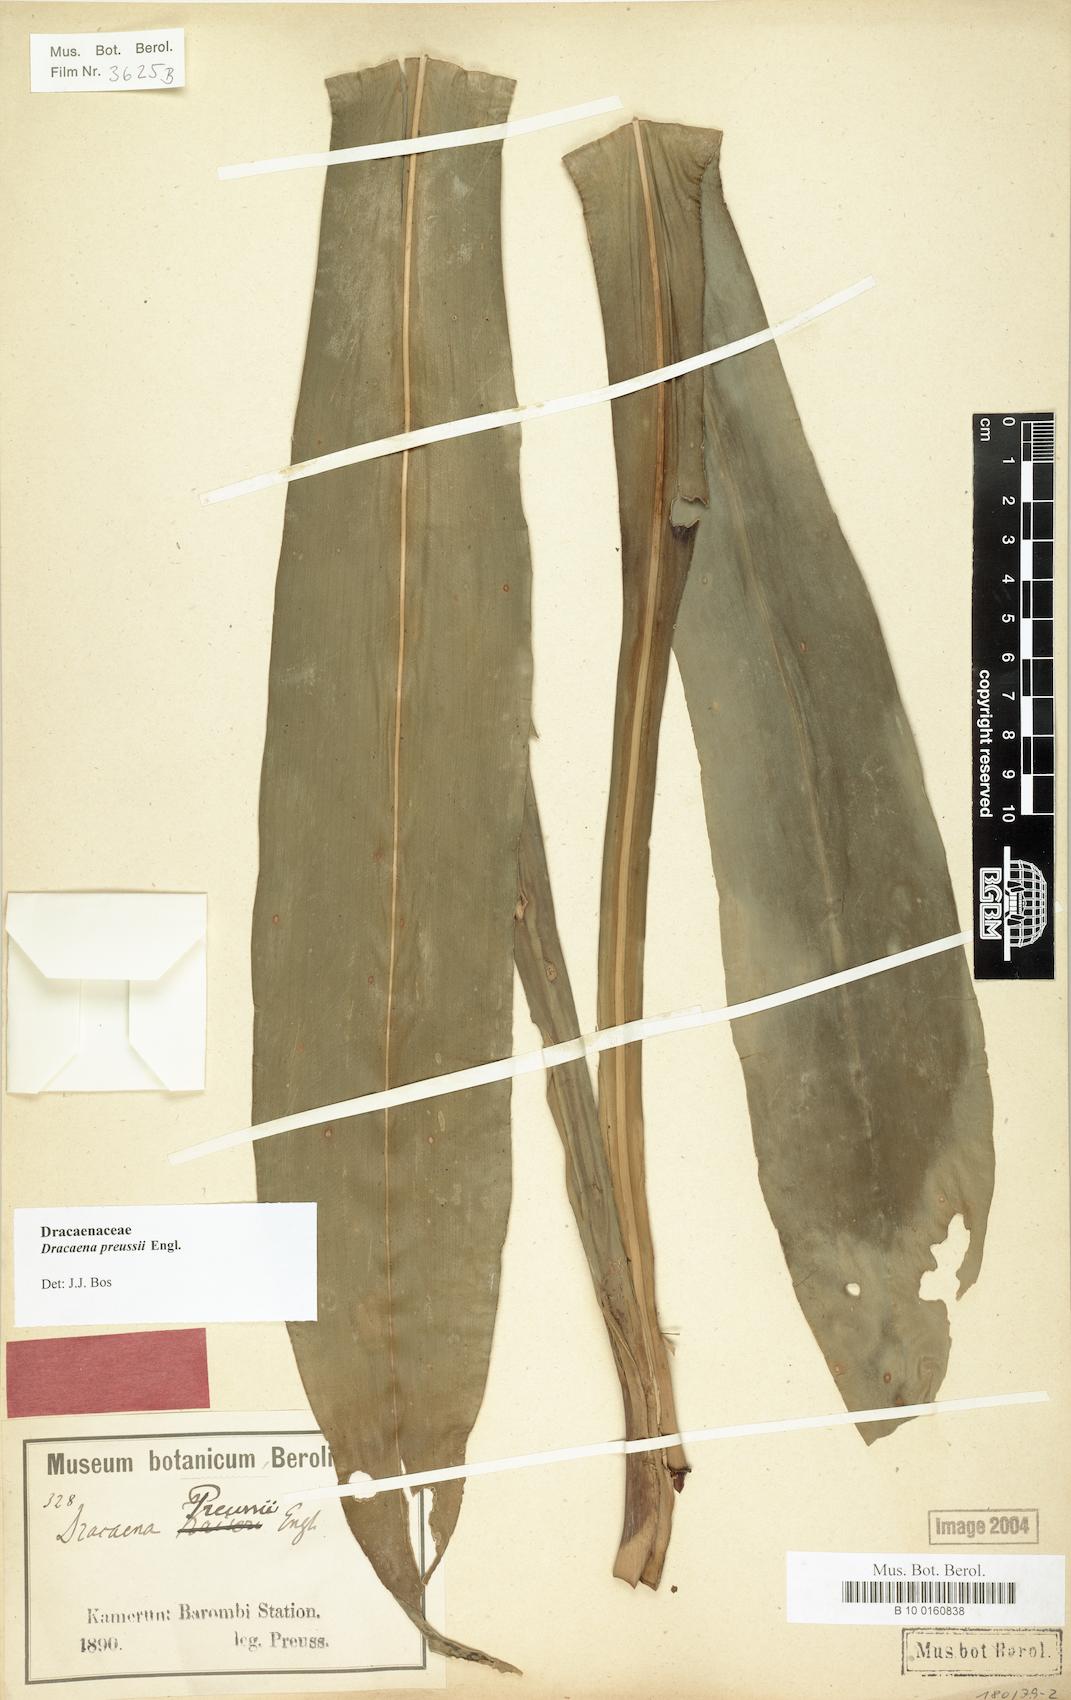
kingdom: Plantae
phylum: Tracheophyta
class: Liliopsida
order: Asparagales
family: Asparagaceae
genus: Dracaena
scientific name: Dracaena bicolor
